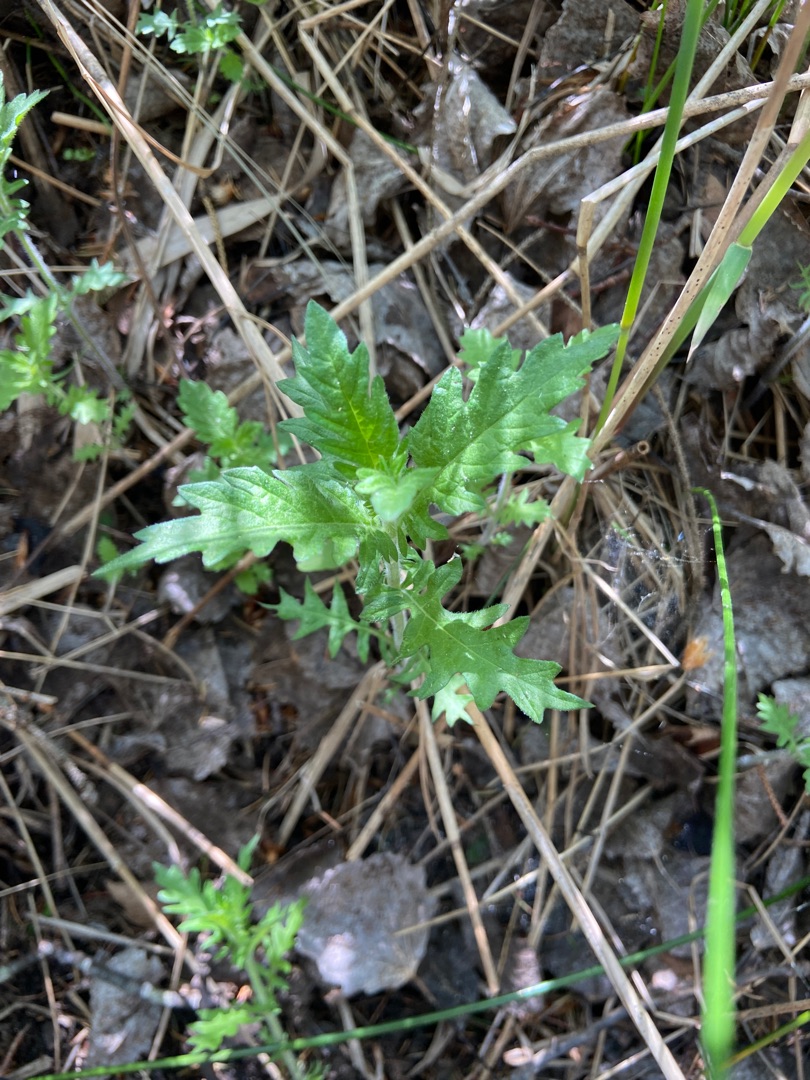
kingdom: Plantae
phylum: Tracheophyta
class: Magnoliopsida
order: Lamiales
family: Lamiaceae
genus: Lycopus
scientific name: Lycopus europaeus
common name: Sværtevæld
